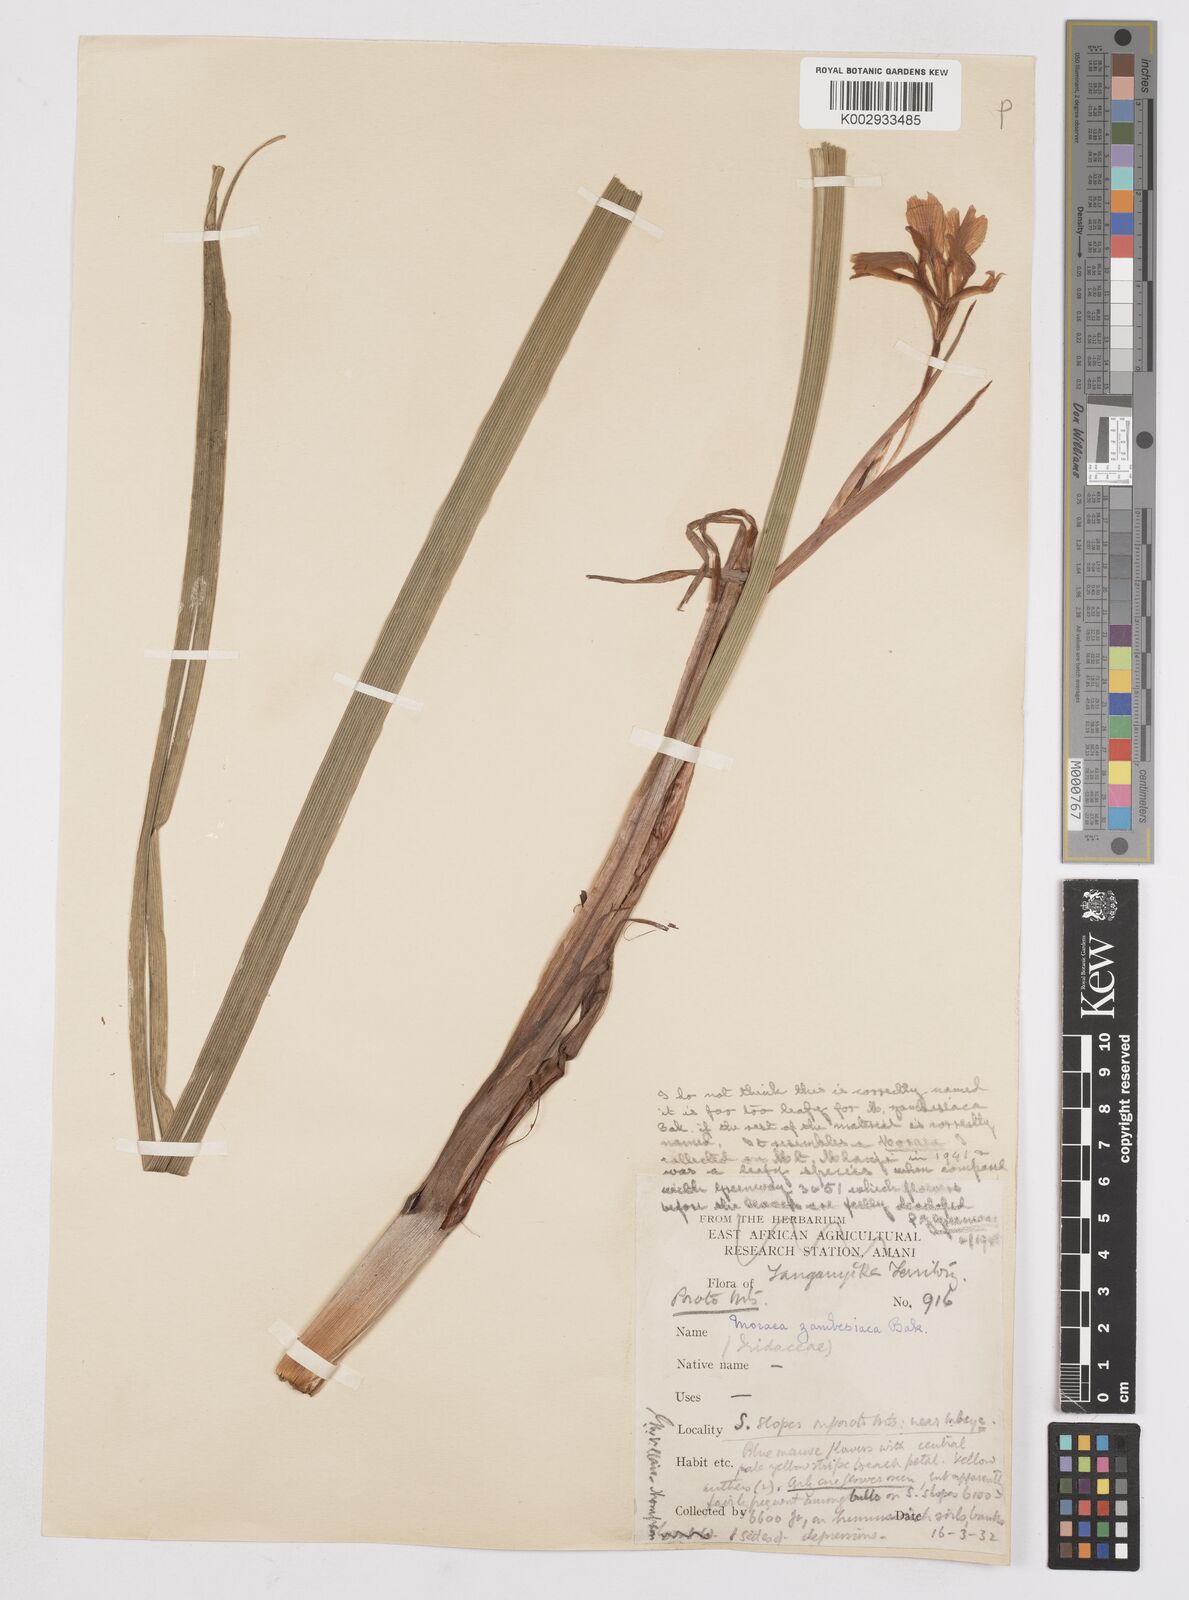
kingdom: Plantae
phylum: Tracheophyta
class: Liliopsida
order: Asparagales
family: Iridaceae
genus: Moraea
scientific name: Moraea schimperi
